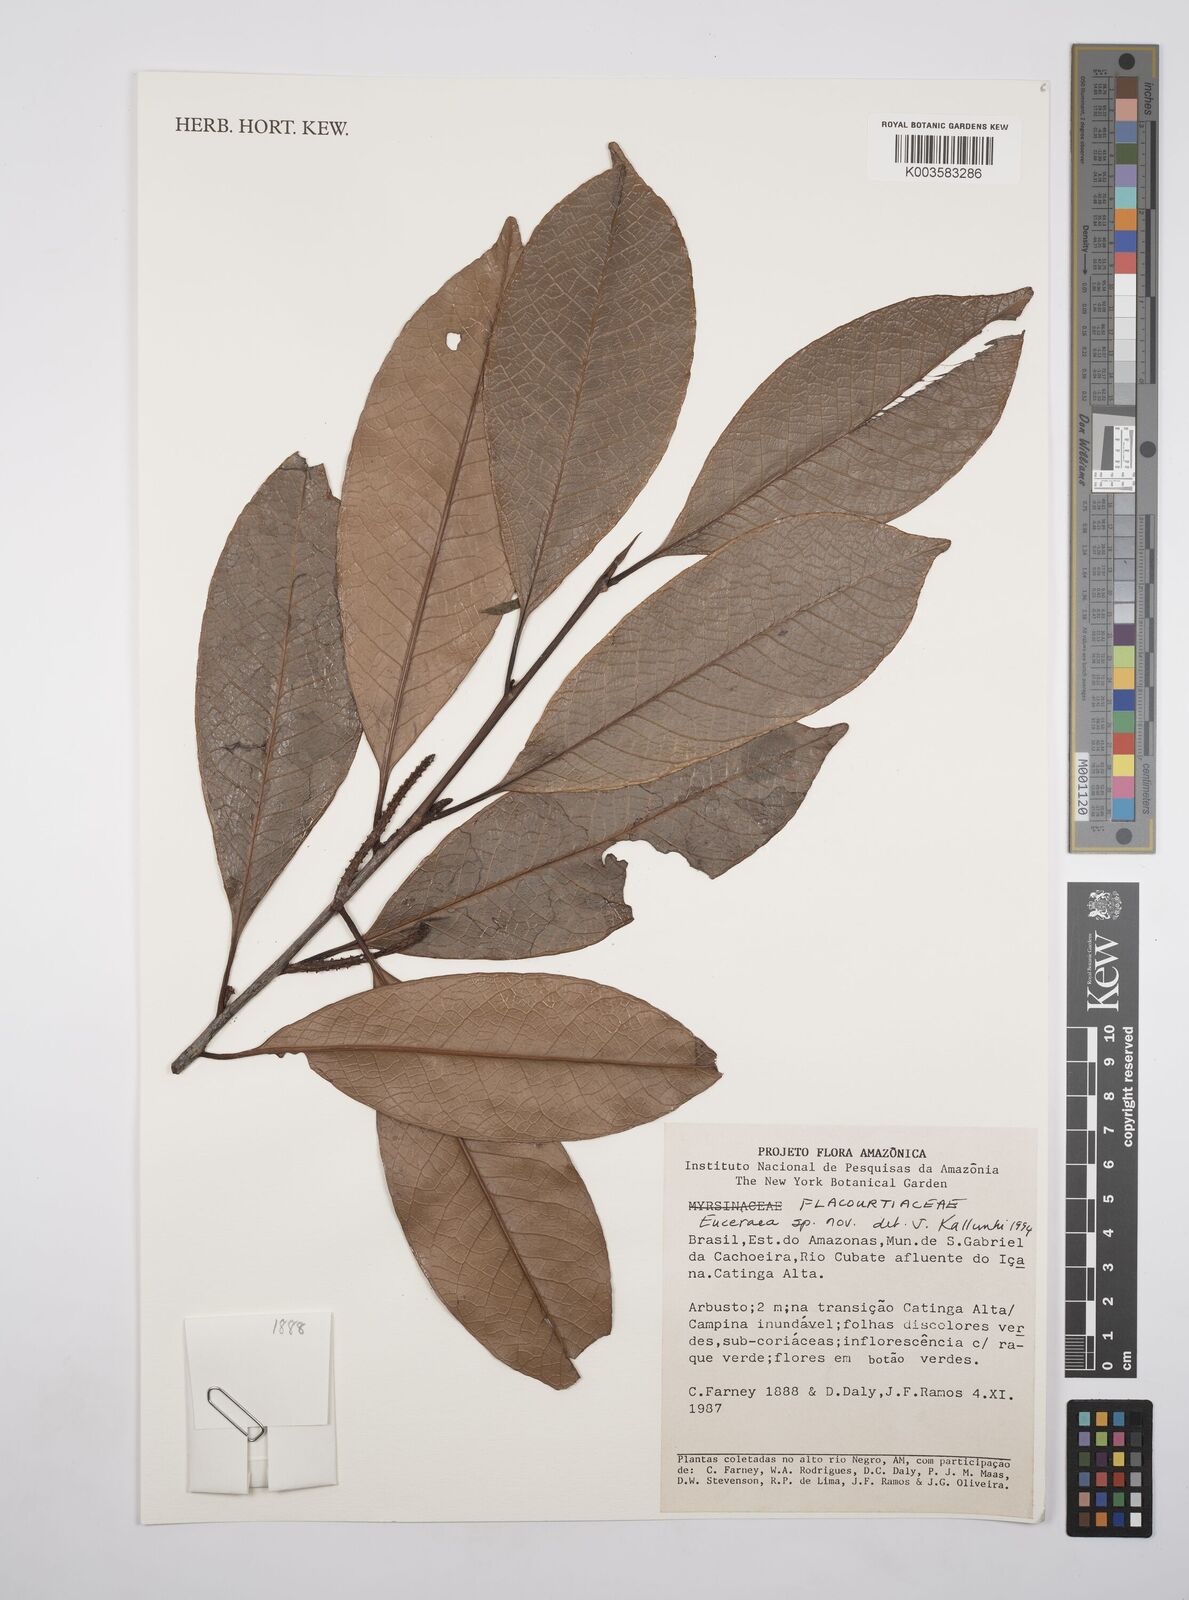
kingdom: Plantae
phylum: Tracheophyta
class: Magnoliopsida
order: Malpighiales
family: Salicaceae
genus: Casearia
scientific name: Casearia
